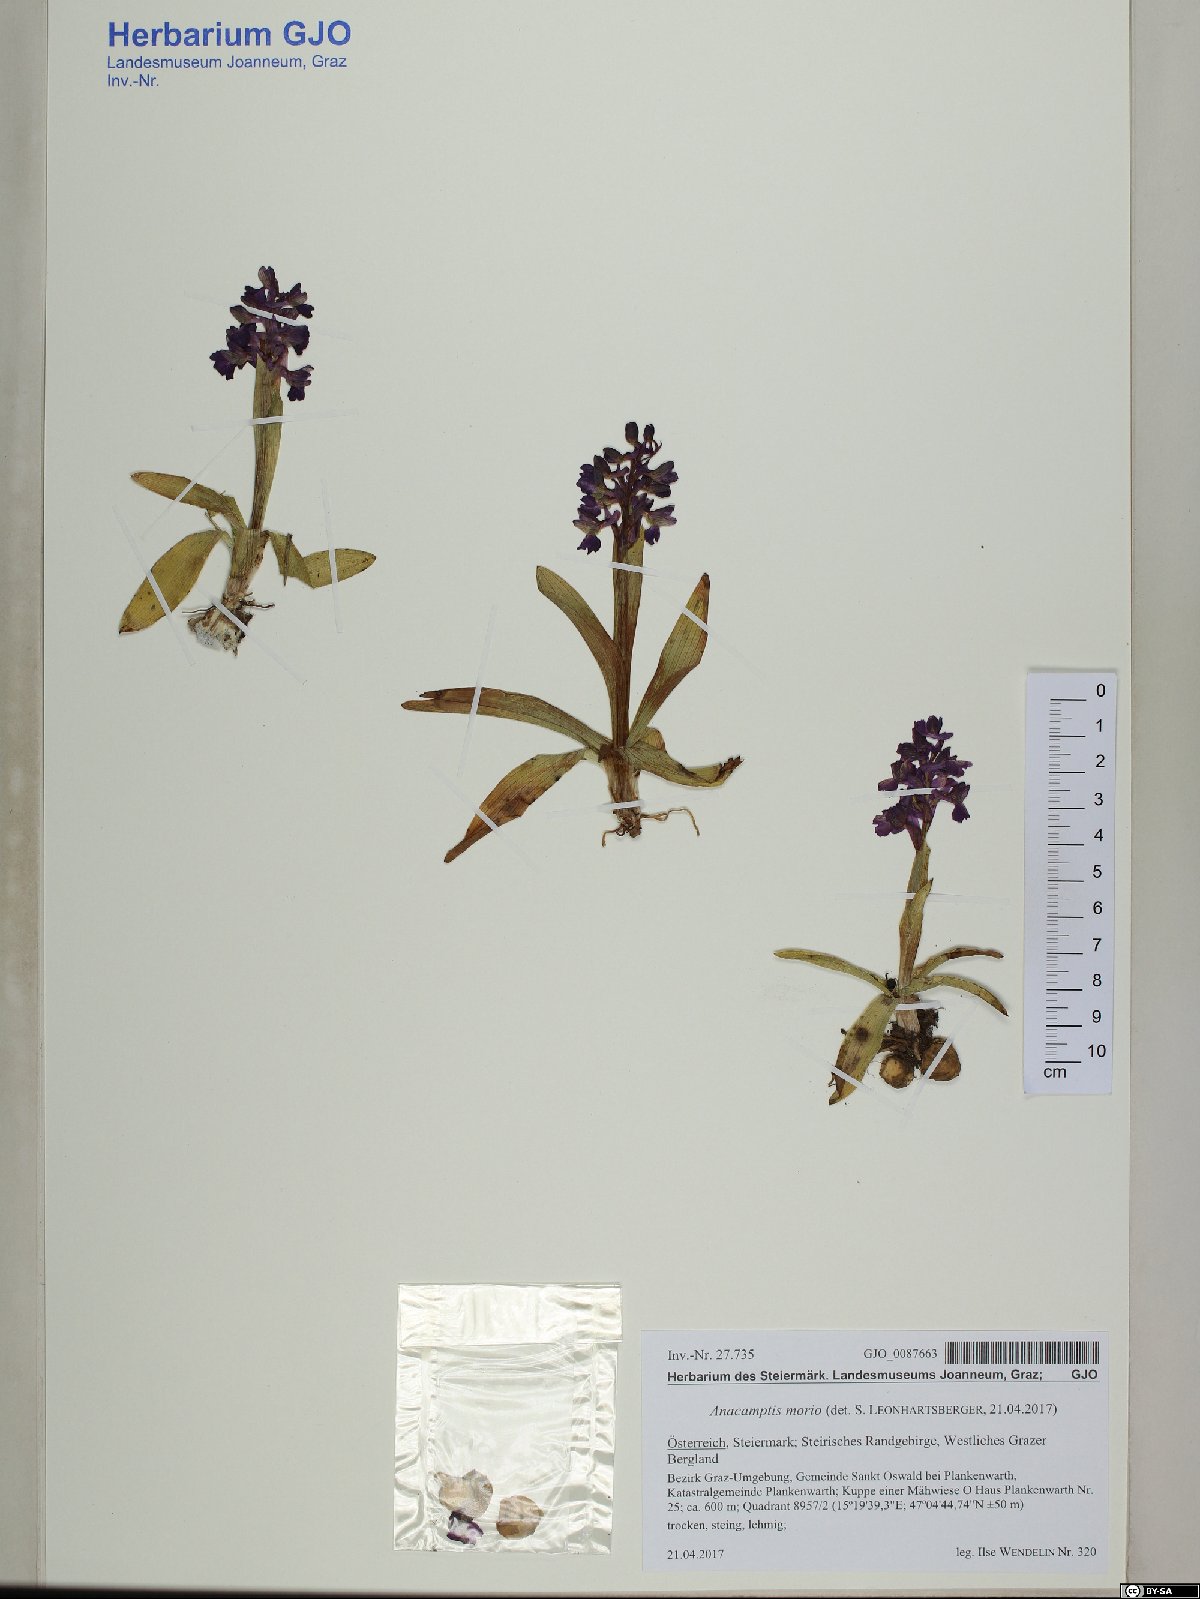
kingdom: Plantae
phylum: Tracheophyta
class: Liliopsida
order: Asparagales
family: Orchidaceae
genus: Anacamptis
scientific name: Anacamptis morio
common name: Green-winged orchid
